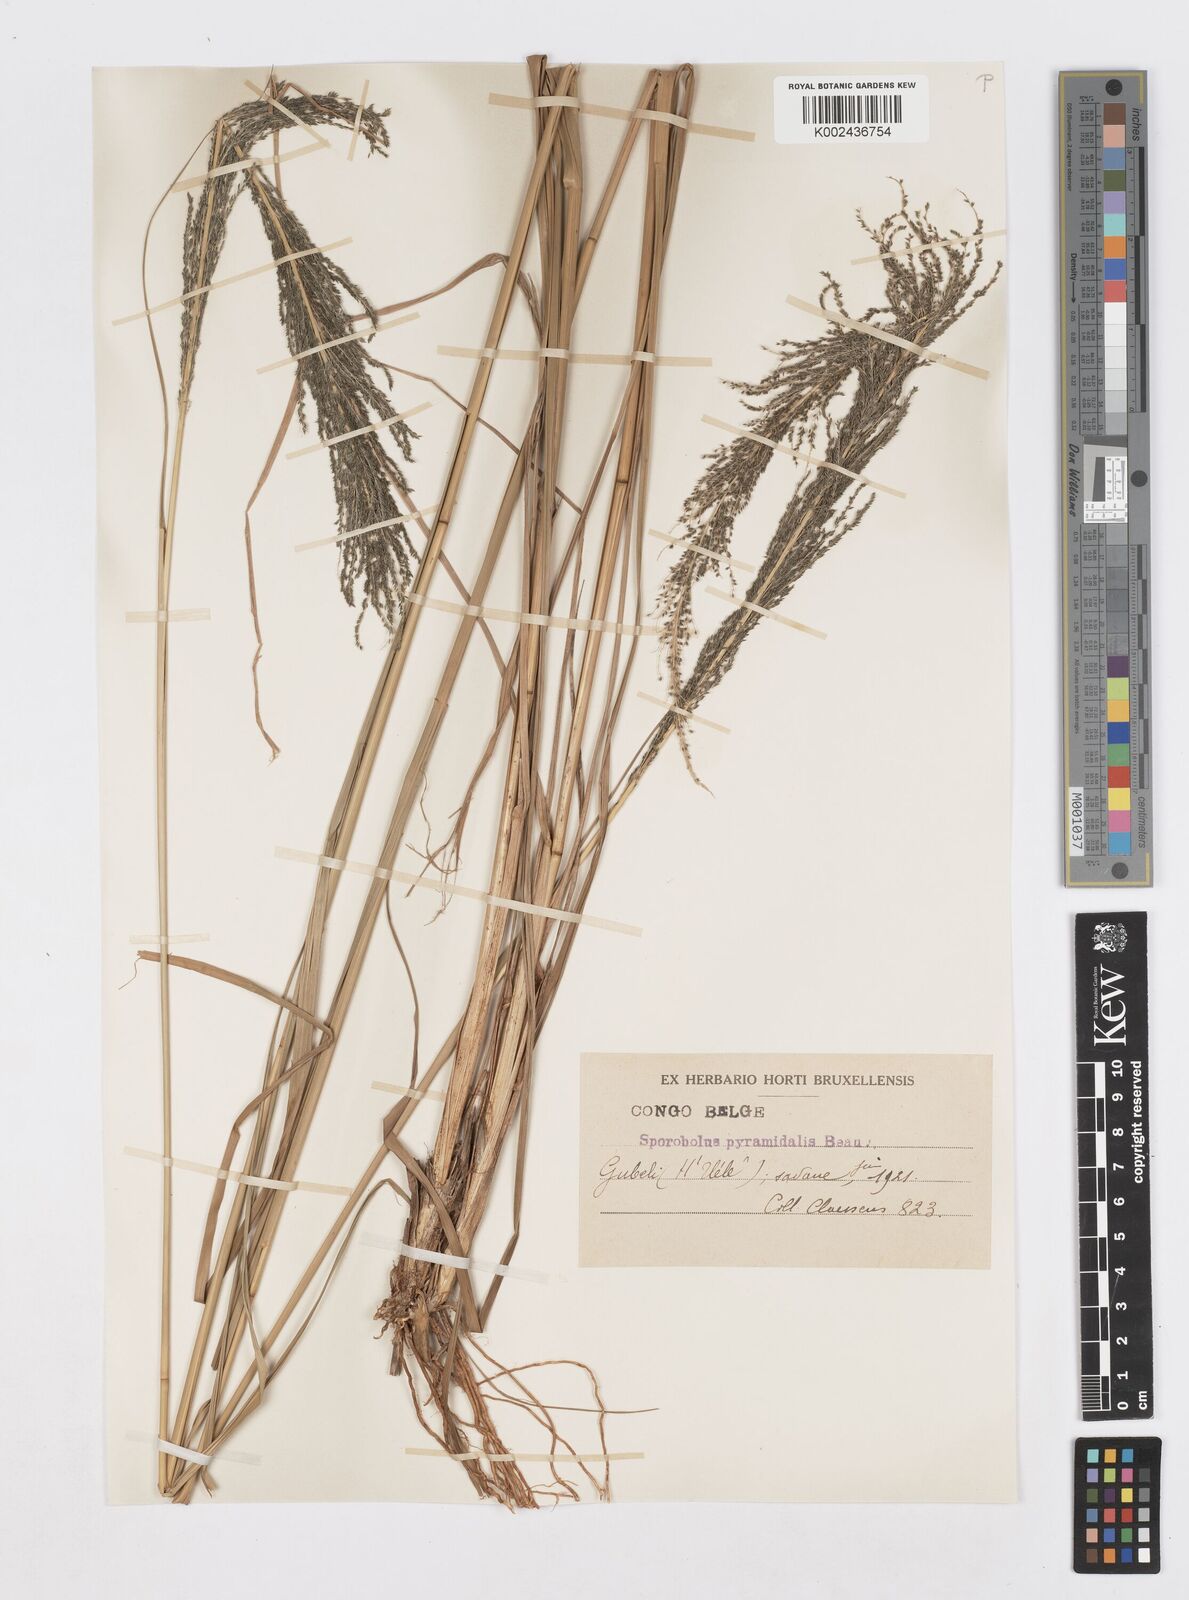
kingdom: Plantae
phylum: Tracheophyta
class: Liliopsida
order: Poales
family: Poaceae
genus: Sporobolus
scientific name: Sporobolus pyramidalis
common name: West indian dropseed
